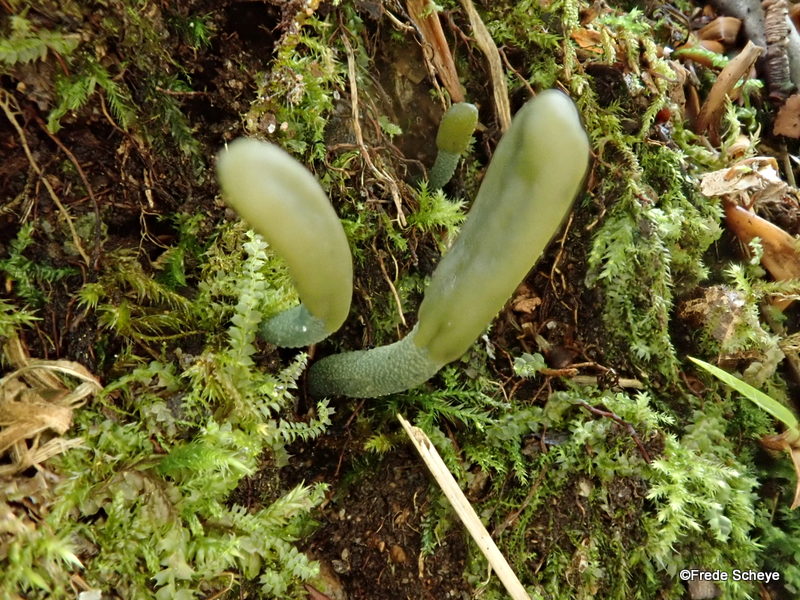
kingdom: Fungi
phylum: Ascomycota
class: Leotiomycetes
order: Leotiales
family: Leotiaceae
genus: Microglossum
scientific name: Microglossum griseoviride
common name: grågrøn farvetunge
